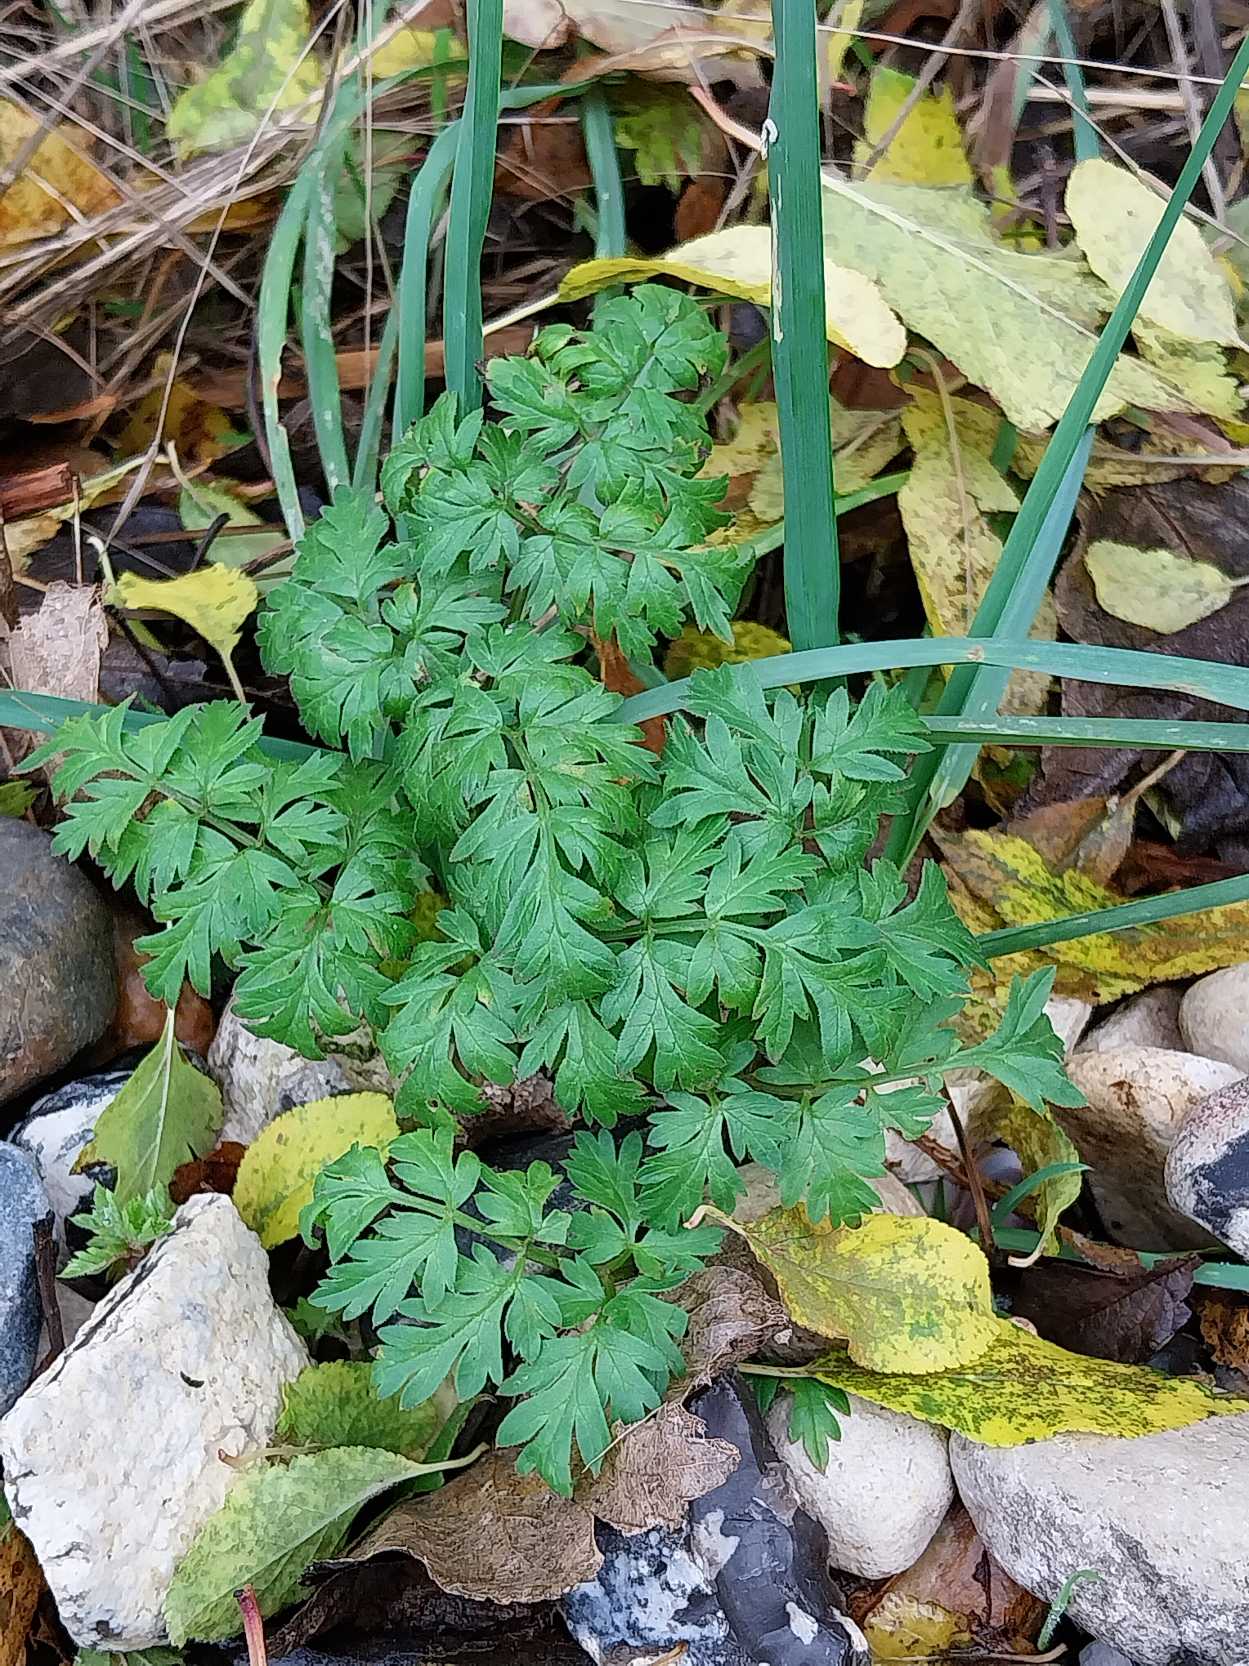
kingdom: Plantae
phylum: Tracheophyta
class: Magnoliopsida
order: Apiales
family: Apiaceae
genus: Anthriscus
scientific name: Anthriscus sylvestris
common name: Vild kørvel
